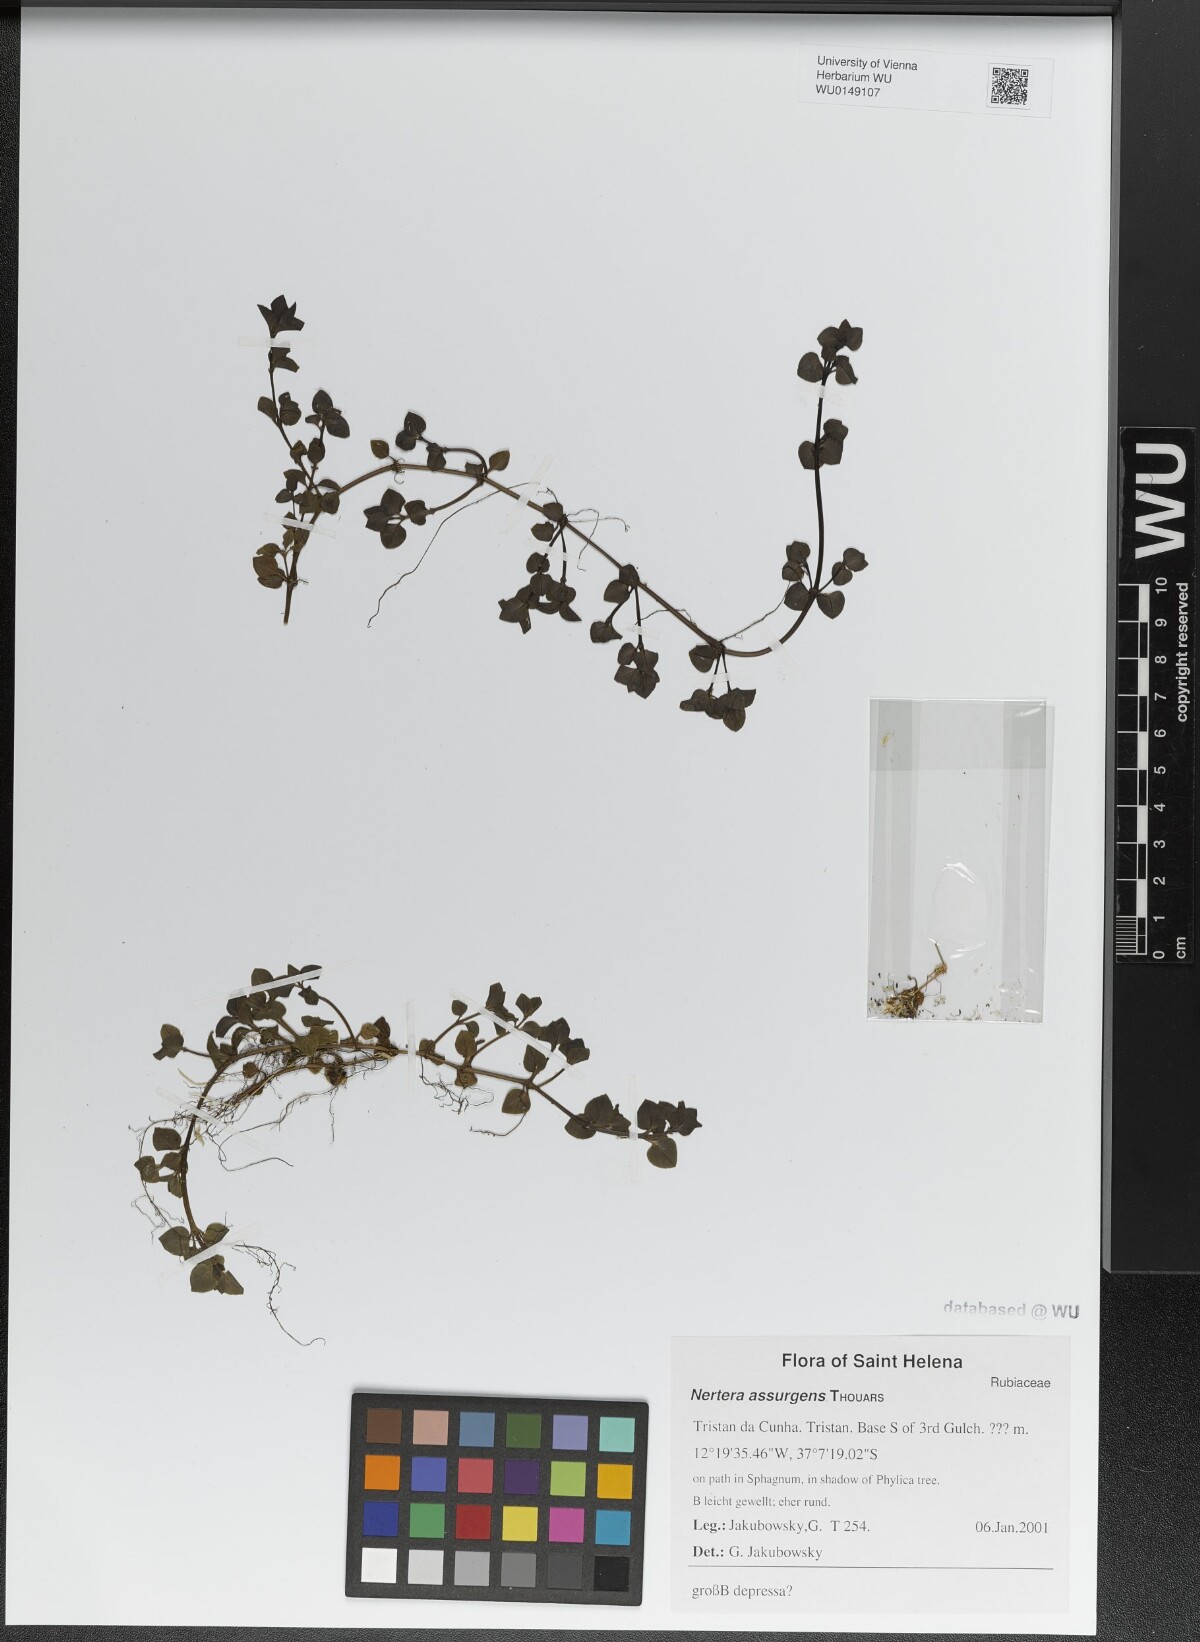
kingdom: Plantae
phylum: Tracheophyta
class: Magnoliopsida
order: Gentianales
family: Rubiaceae
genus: Nertera
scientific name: Nertera granadensis
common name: Beadplant
